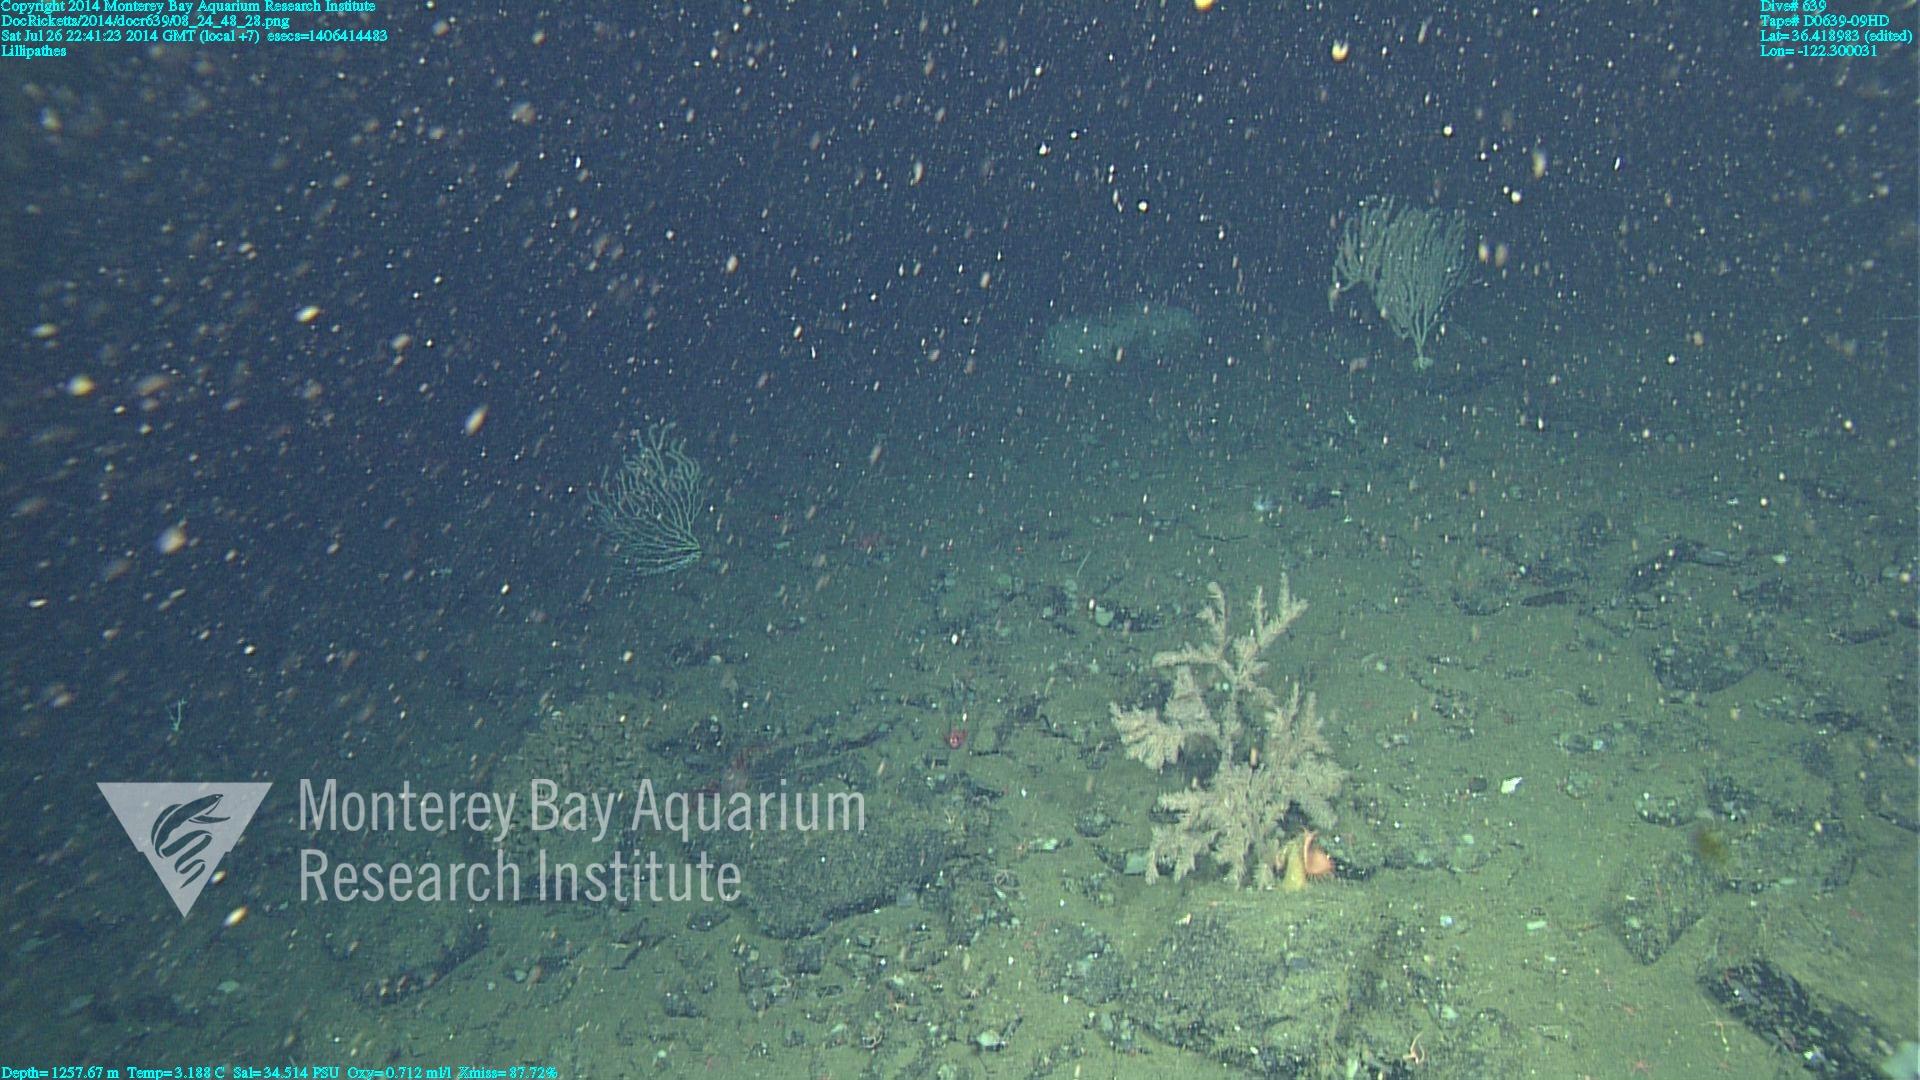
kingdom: Animalia
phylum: Cnidaria
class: Anthozoa
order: Antipatharia
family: Schizopathidae
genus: Lillipathes
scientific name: Lillipathes
